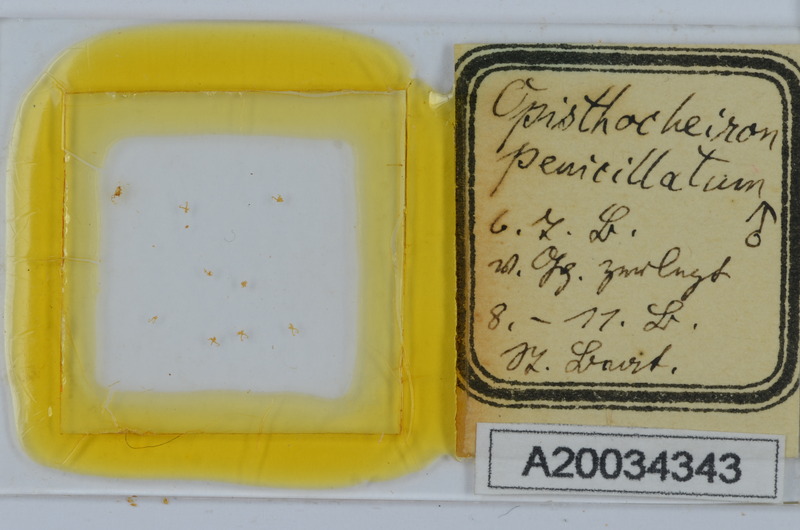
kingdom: Animalia
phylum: Arthropoda
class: Diplopoda
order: Chordeumatida
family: Opisthocheiridae
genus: Opisthocheiron
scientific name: Opisthocheiron penicillatum
